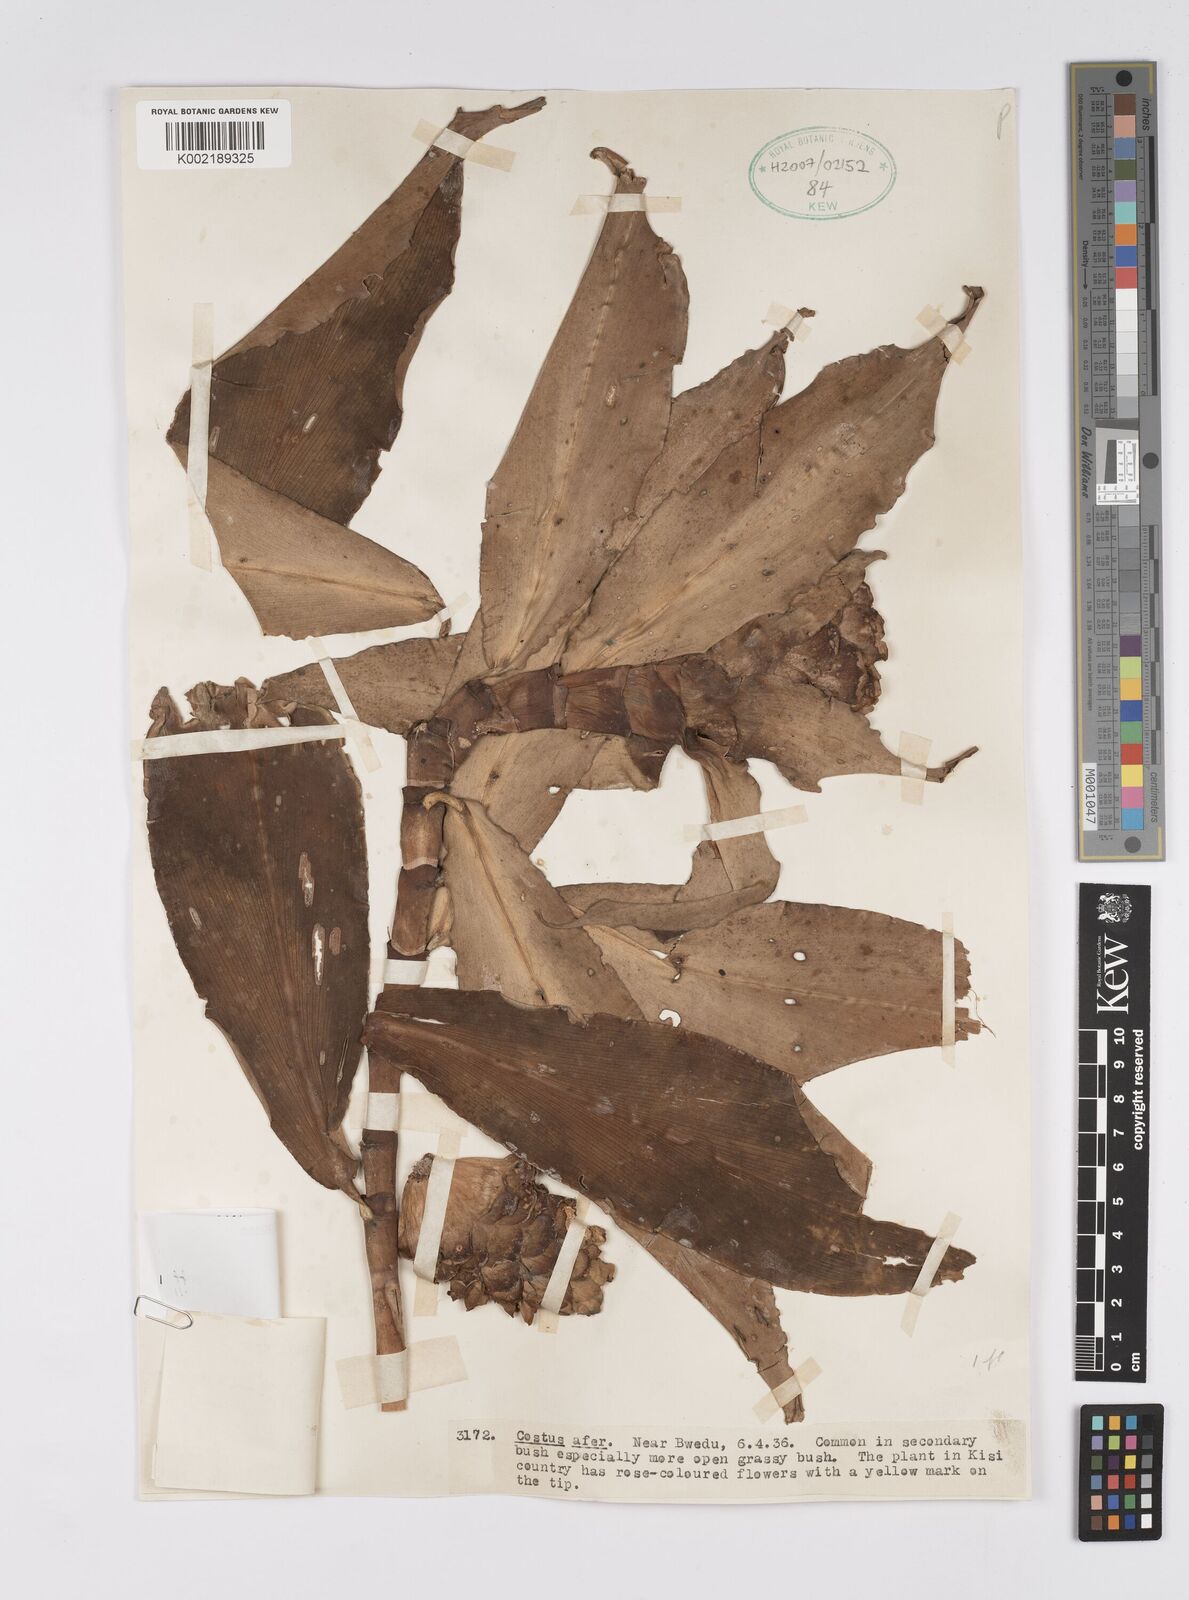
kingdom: Plantae
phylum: Tracheophyta
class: Liliopsida
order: Zingiberales
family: Costaceae
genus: Costus
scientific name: Costus afer
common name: Spiral-ginger
